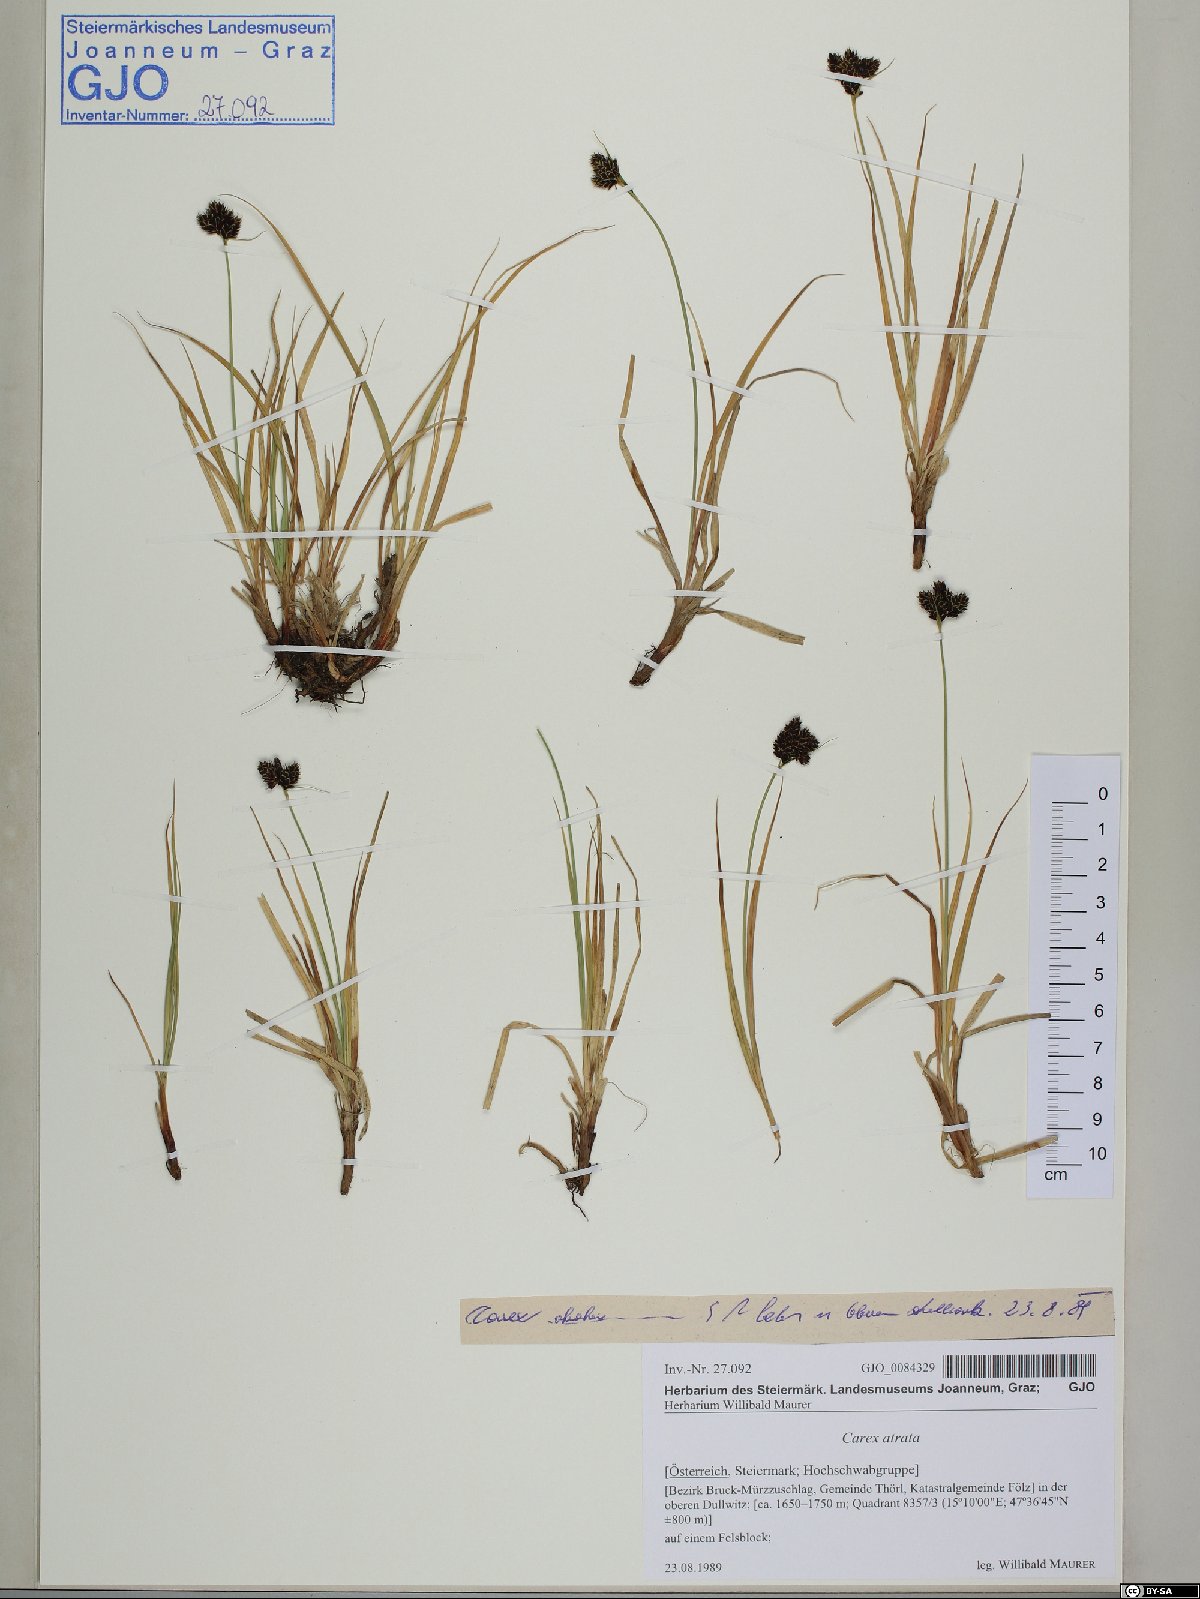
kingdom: Plantae
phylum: Tracheophyta
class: Liliopsida
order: Poales
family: Cyperaceae
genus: Carex
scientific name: Carex atrata
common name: Black alpine sedge
